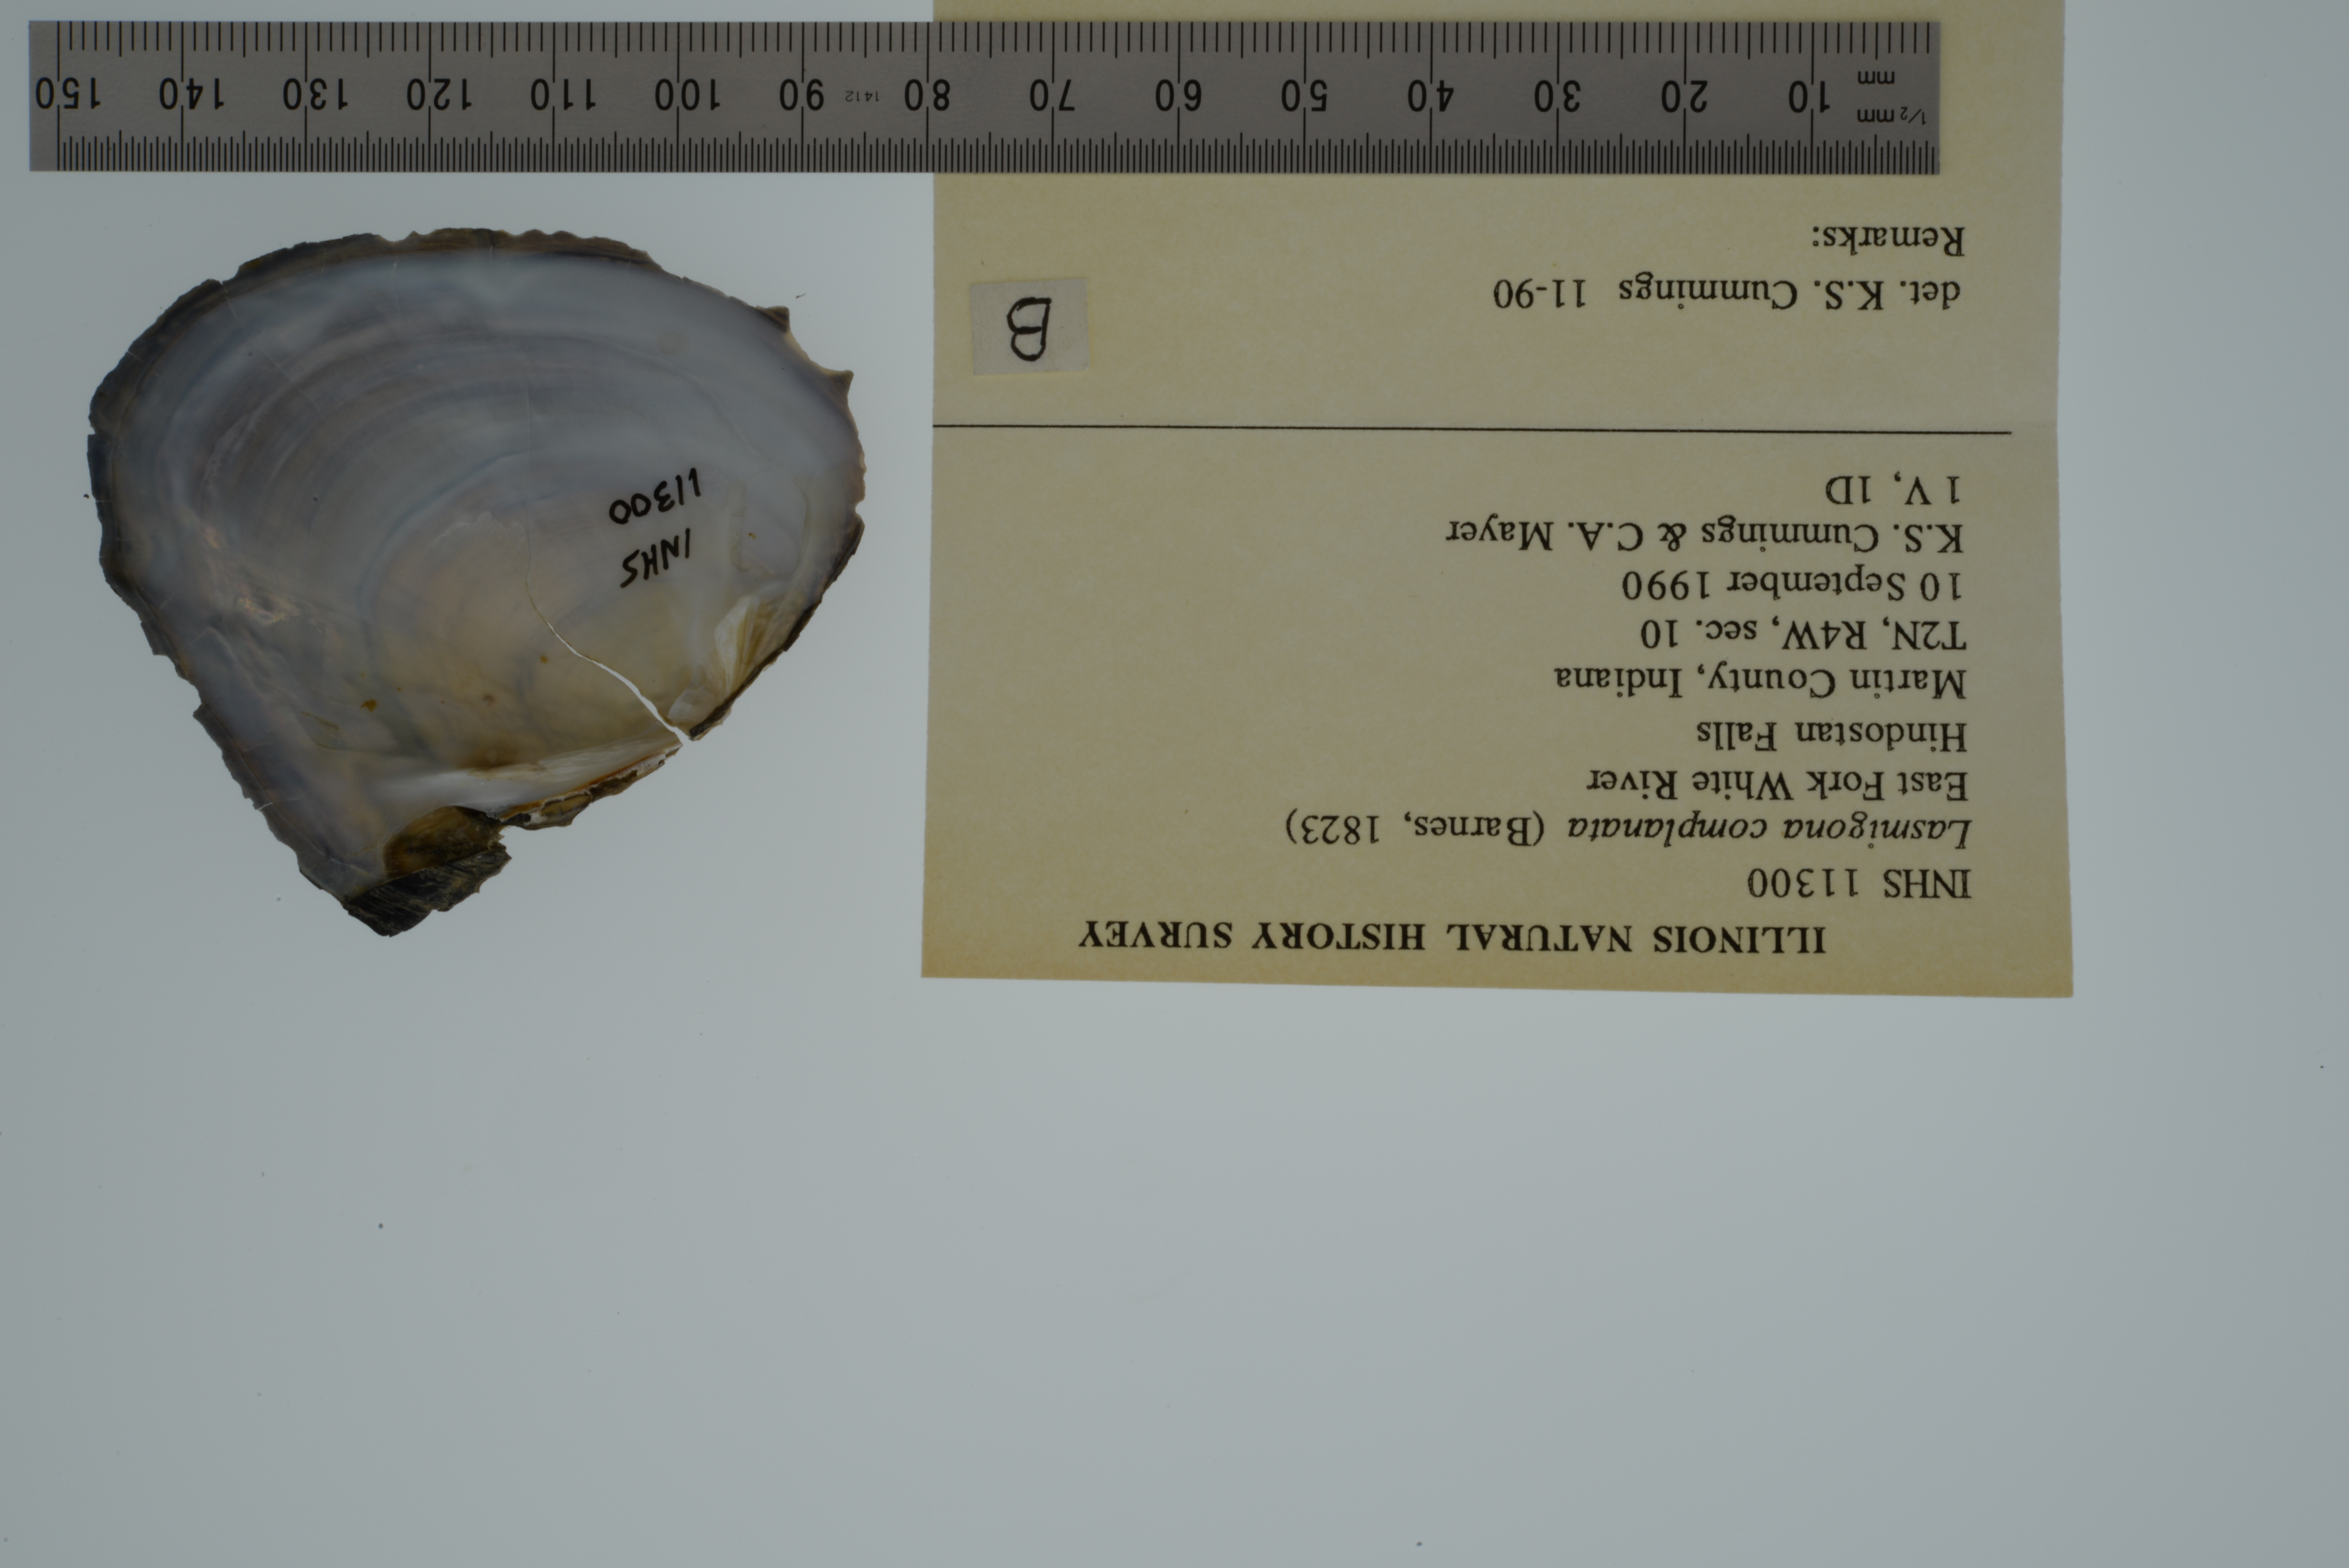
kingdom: Animalia
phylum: Mollusca
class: Bivalvia
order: Unionida
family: Unionidae
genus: Lasmigona
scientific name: Lasmigona complanata
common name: White heelsplitter
